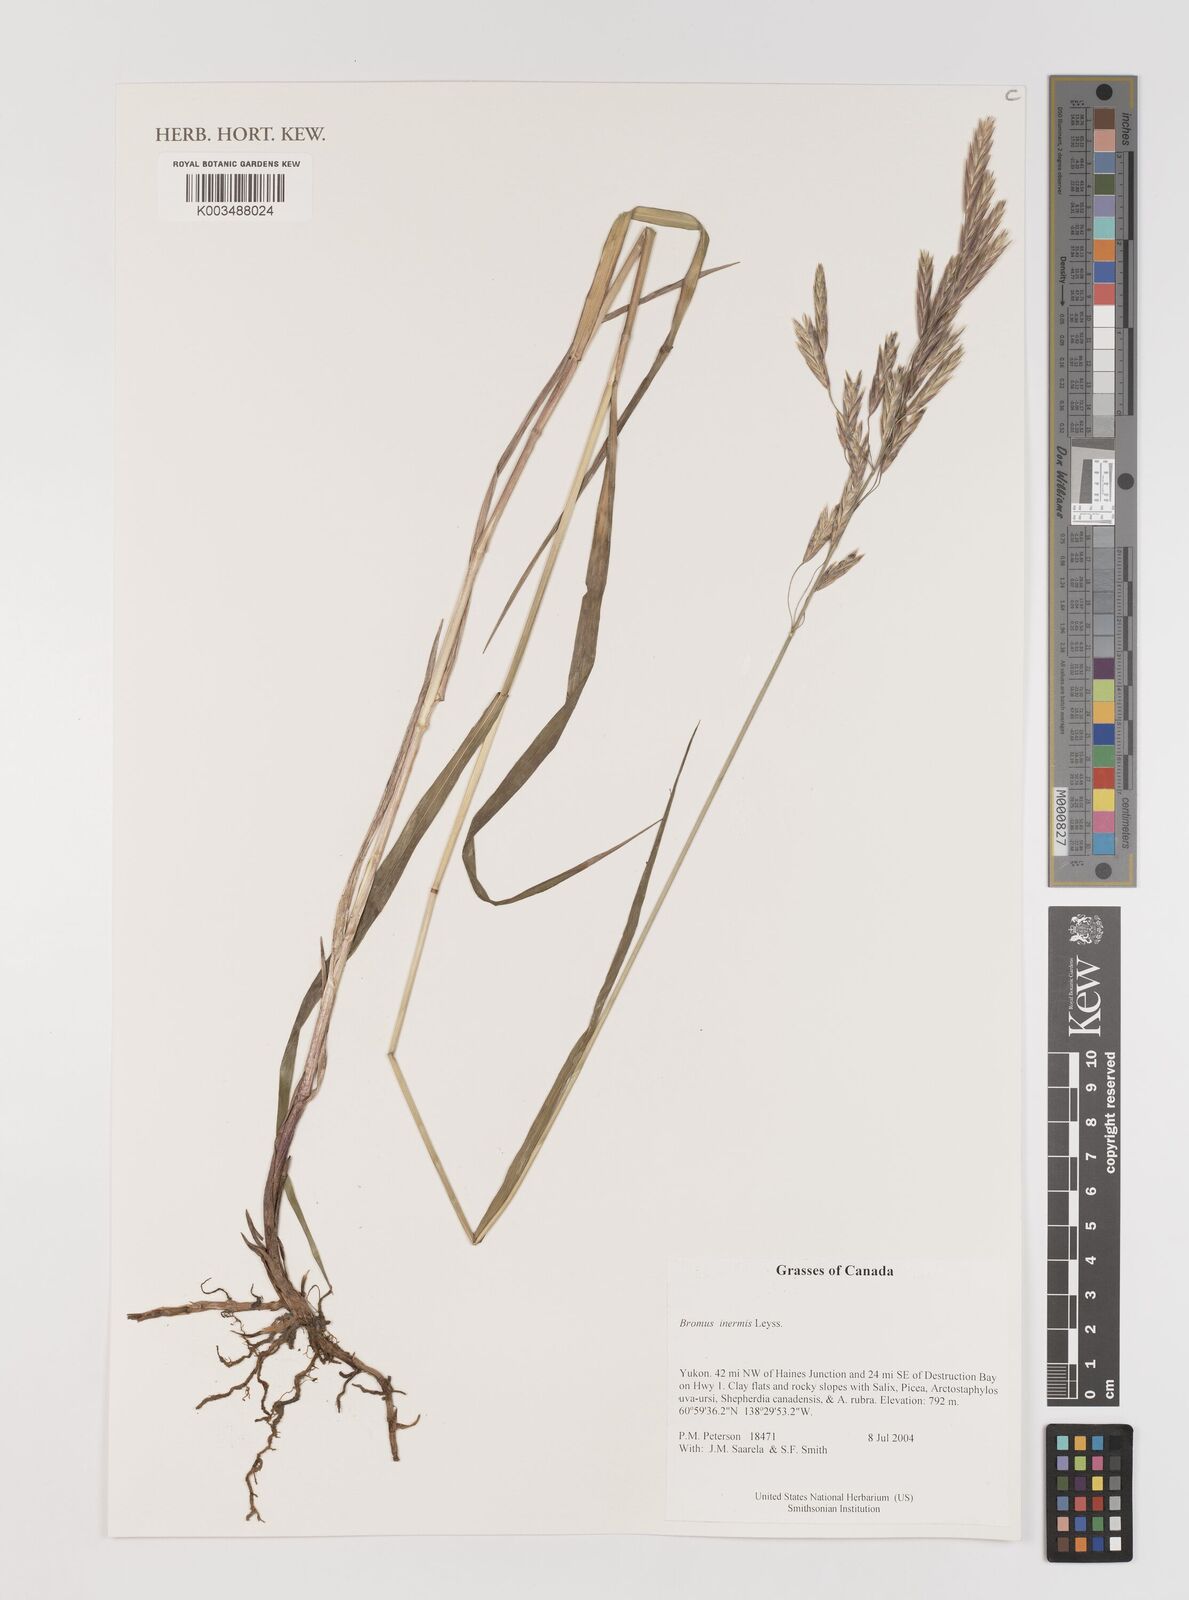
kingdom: Plantae
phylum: Tracheophyta
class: Liliopsida
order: Poales
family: Poaceae
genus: Bromus
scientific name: Bromus inermis
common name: Smooth brome
